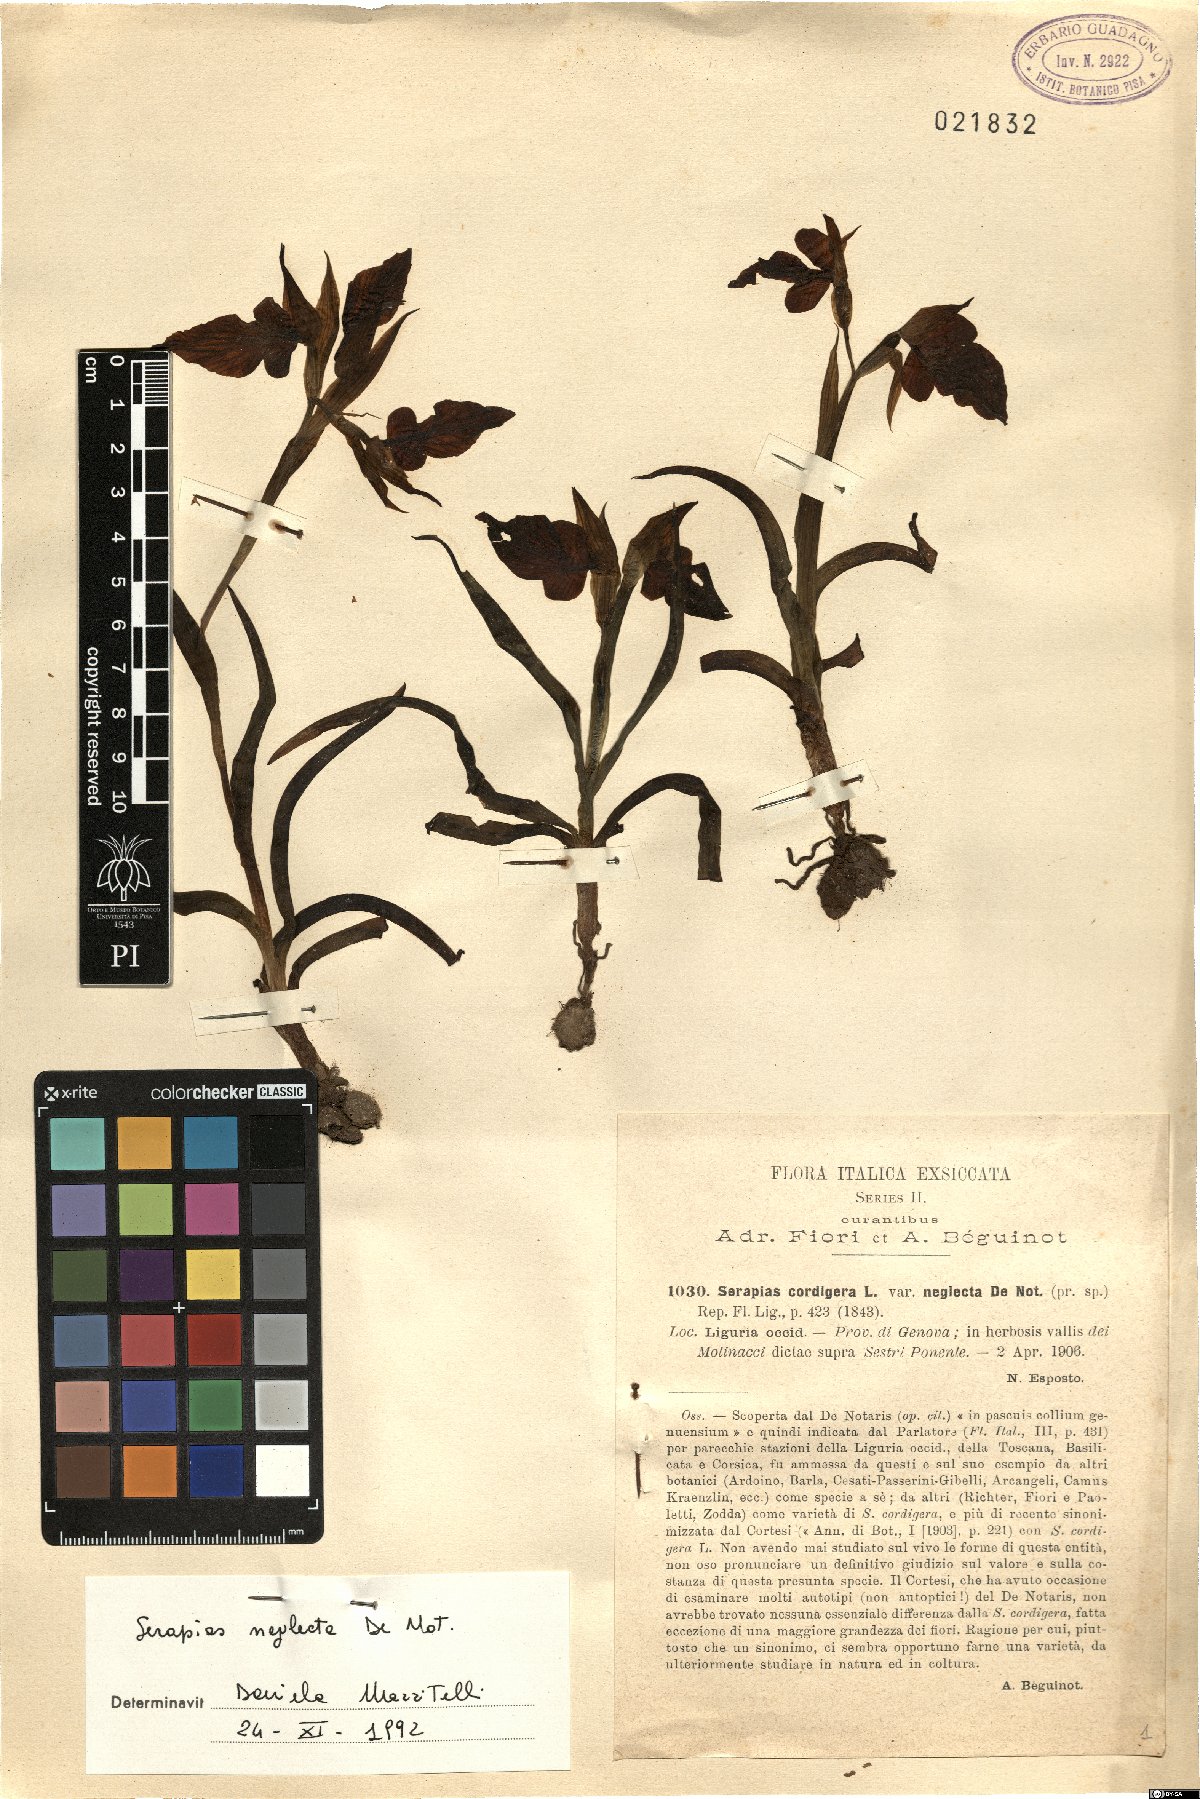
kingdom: Plantae
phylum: Tracheophyta
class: Liliopsida
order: Asparagales
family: Orchidaceae
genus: Serapias
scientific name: Serapias neglecta
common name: Neglected serapias
